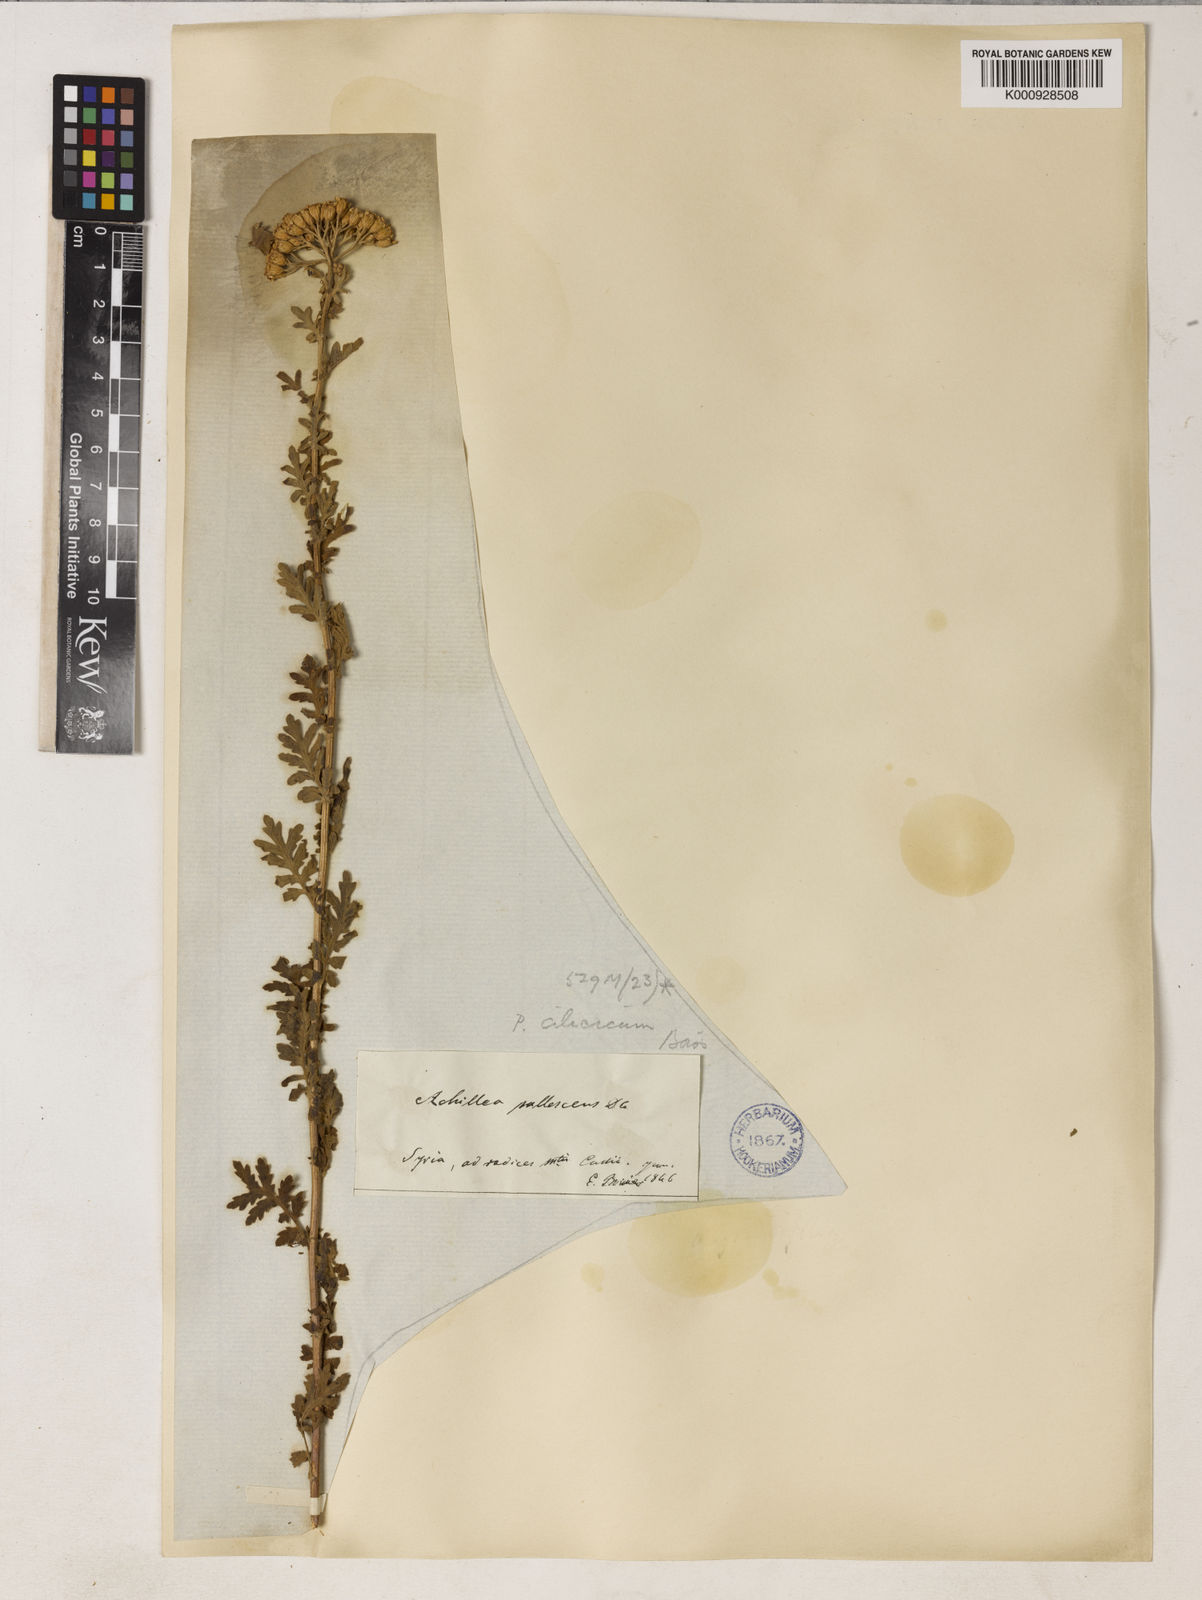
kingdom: Plantae
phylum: Tracheophyta
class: Magnoliopsida
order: Asterales
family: Asteraceae
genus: Tanacetum
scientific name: Tanacetum cilicicum
